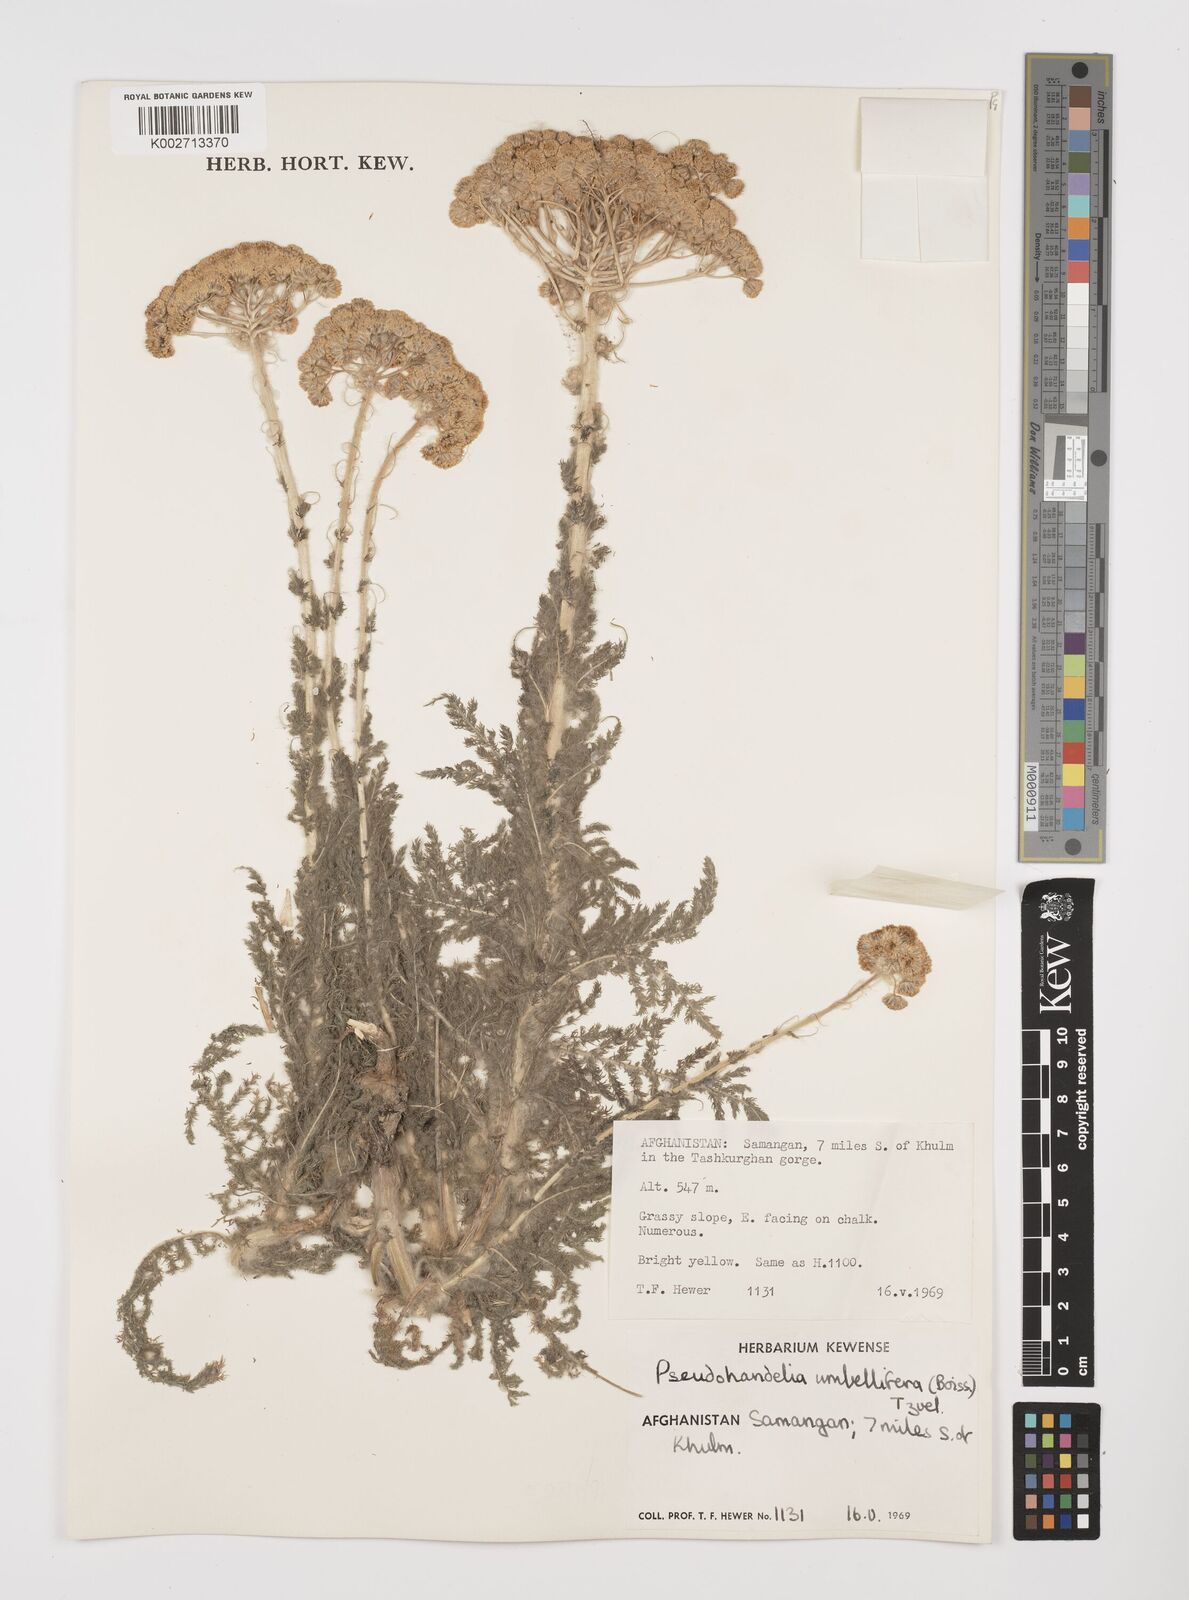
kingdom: Plantae
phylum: Tracheophyta
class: Magnoliopsida
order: Asterales
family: Asteraceae
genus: Pseudohandelia
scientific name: Pseudohandelia umbellifera
